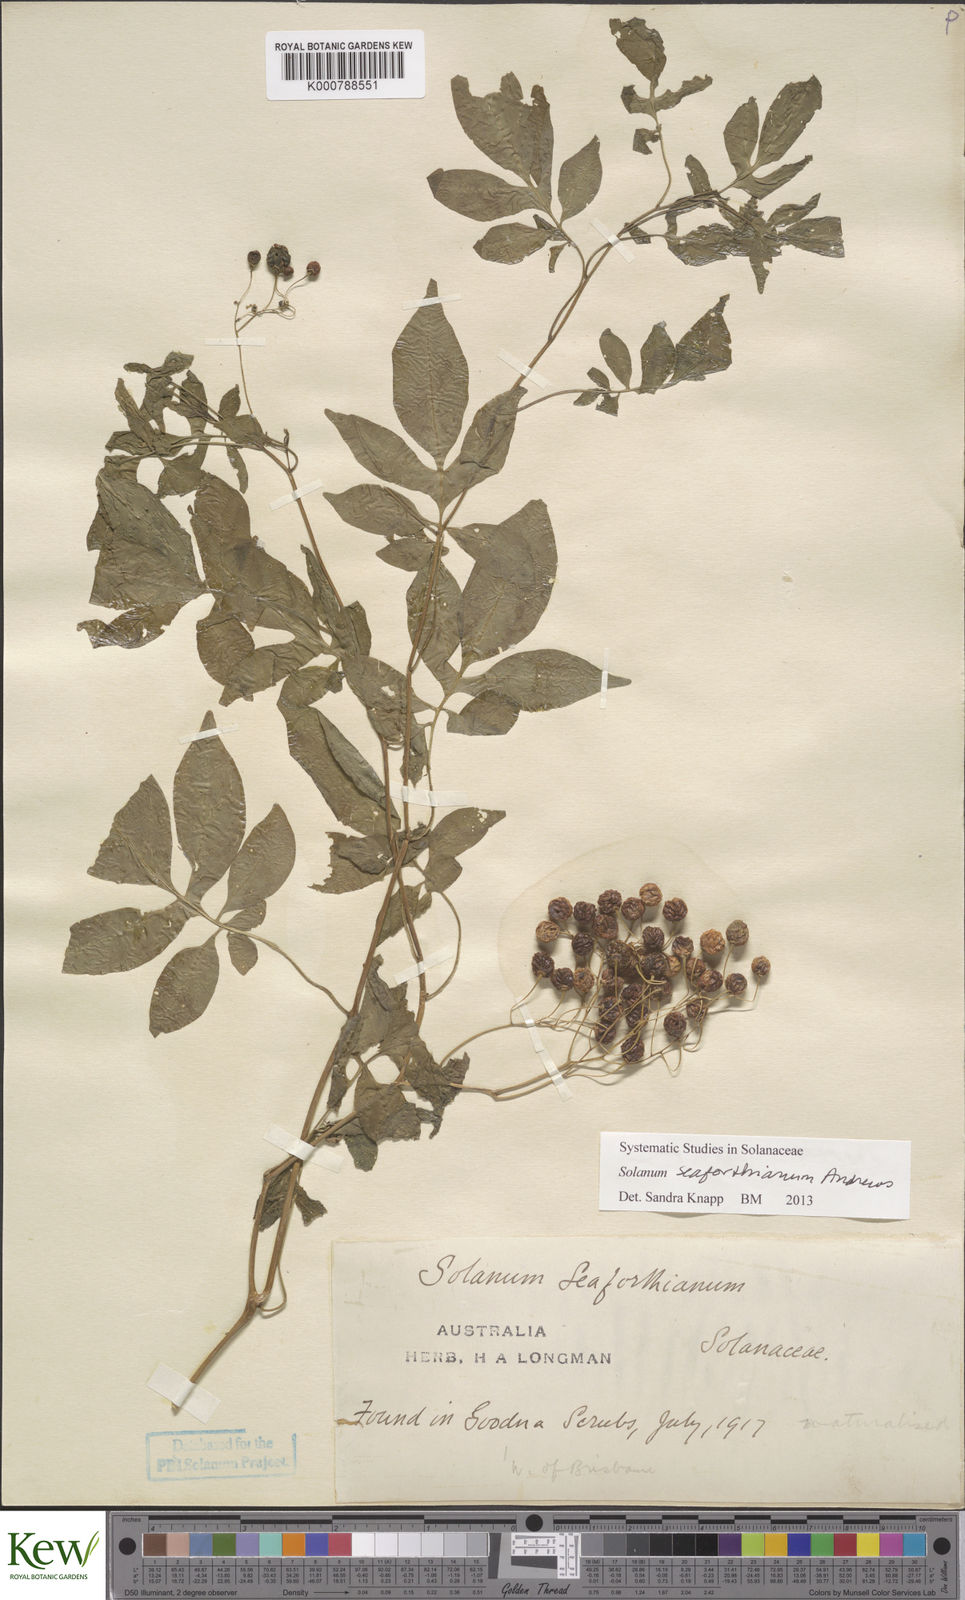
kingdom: Plantae
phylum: Tracheophyta
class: Magnoliopsida
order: Solanales
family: Solanaceae
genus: Solanum
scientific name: Solanum seaforthianum
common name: Brazilian nightshade
